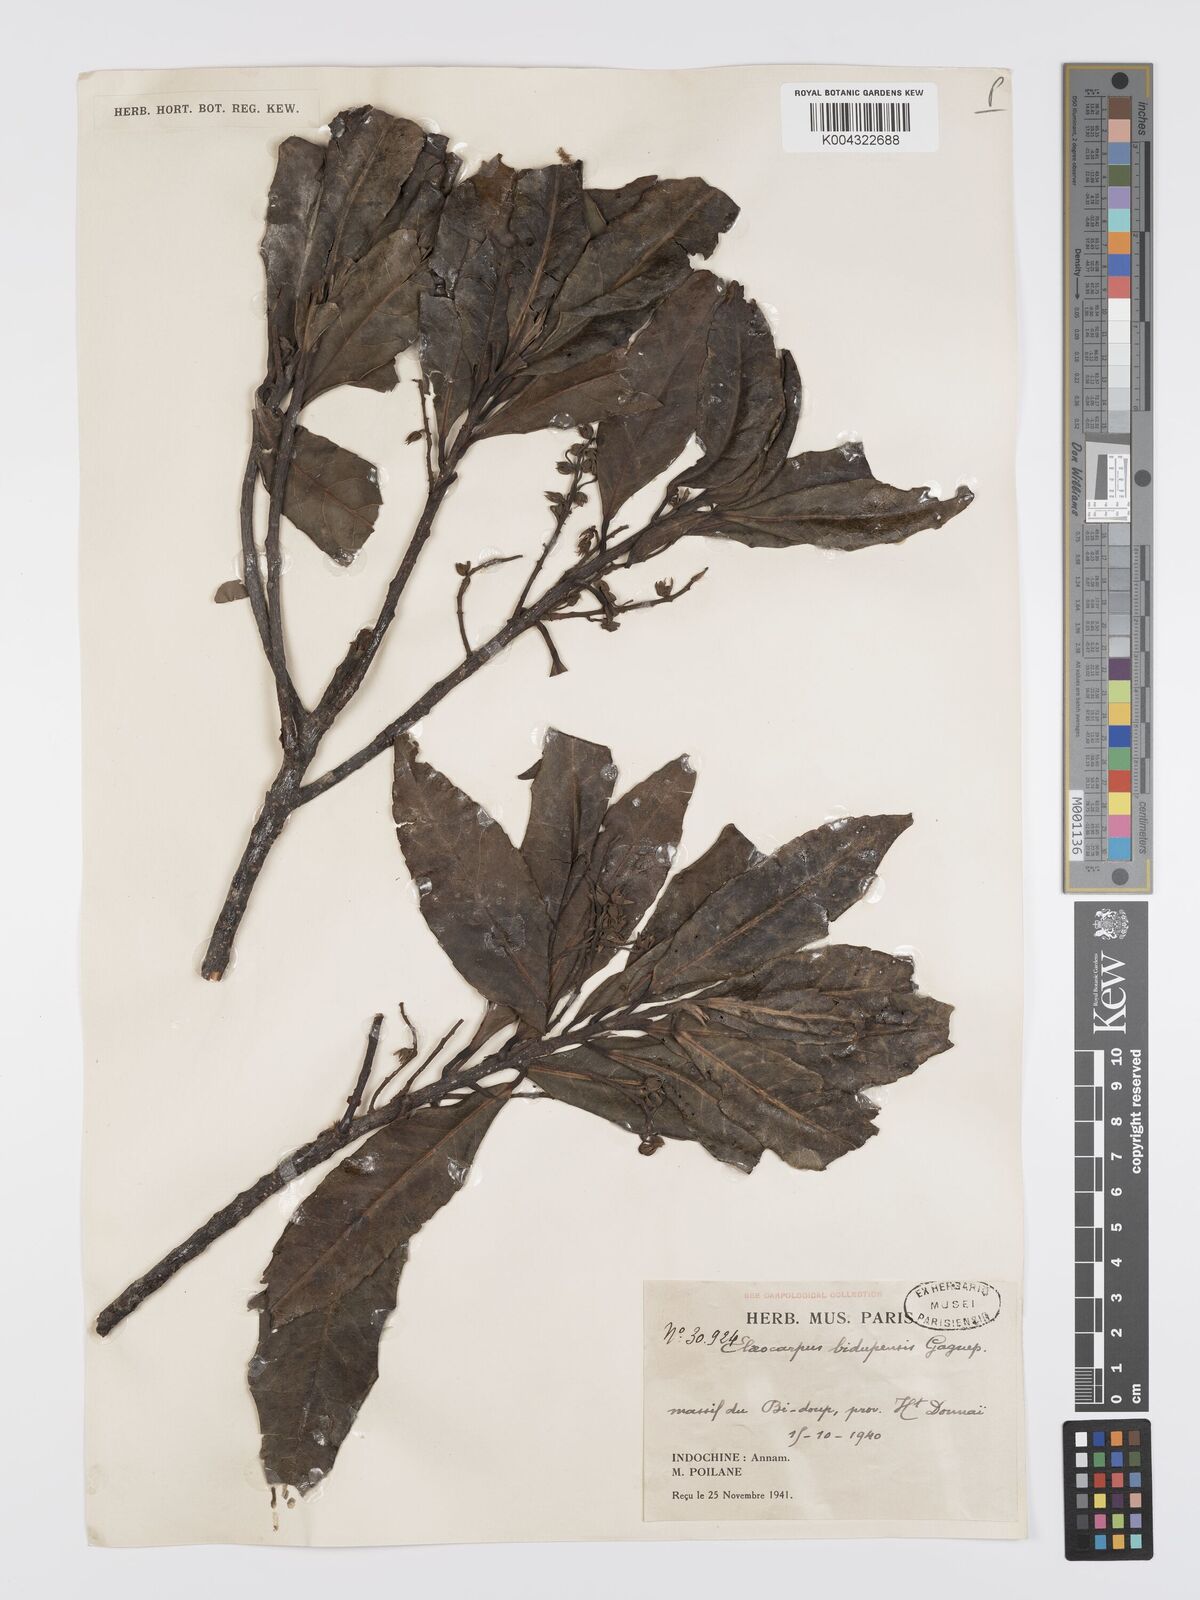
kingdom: Plantae
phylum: Tracheophyta
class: Magnoliopsida
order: Oxalidales
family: Elaeocarpaceae
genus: Elaeocarpus
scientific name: Elaeocarpus bidupensis
